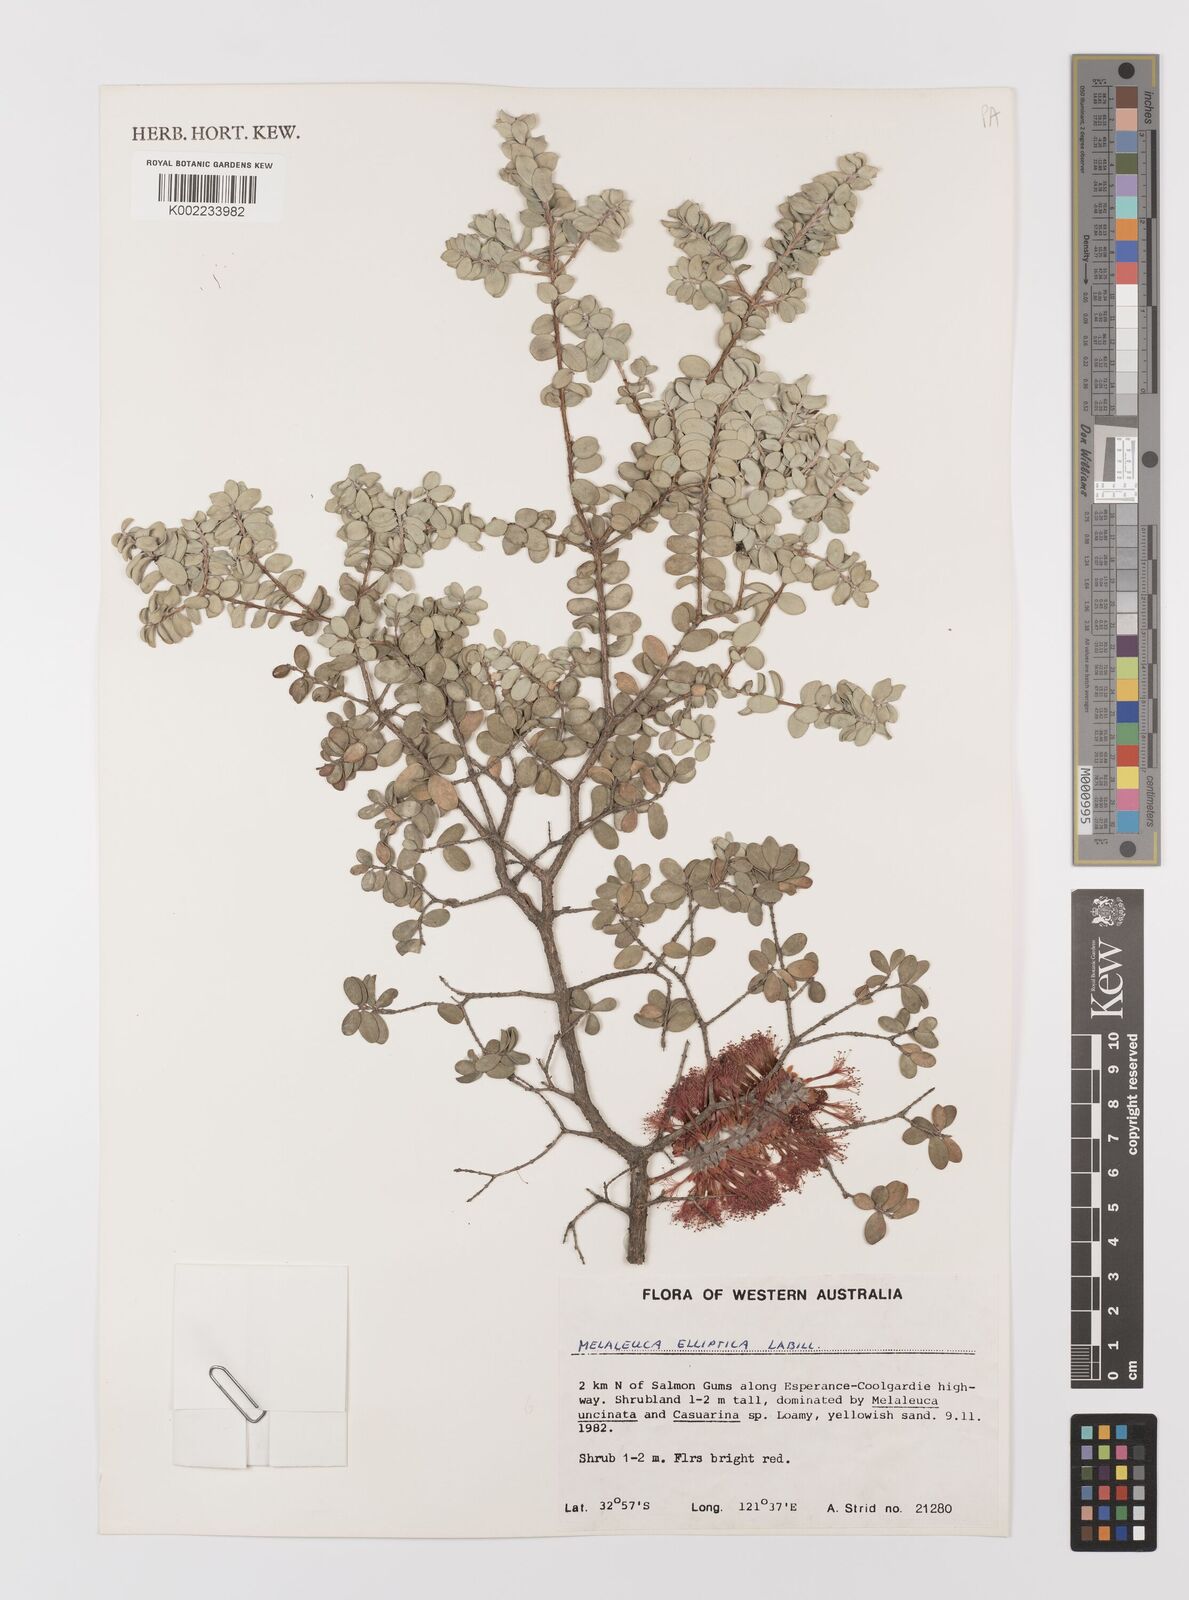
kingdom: Plantae
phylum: Tracheophyta
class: Magnoliopsida
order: Myrtales
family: Myrtaceae
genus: Melaleuca
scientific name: Melaleuca elliptica
